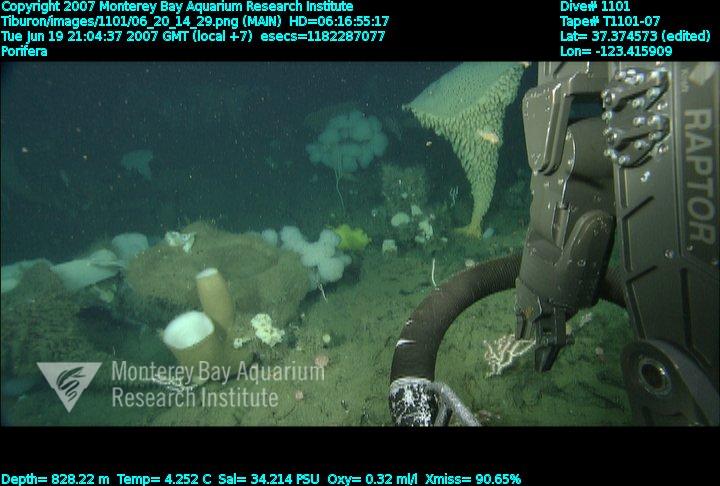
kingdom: Animalia
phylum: Porifera
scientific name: Porifera
